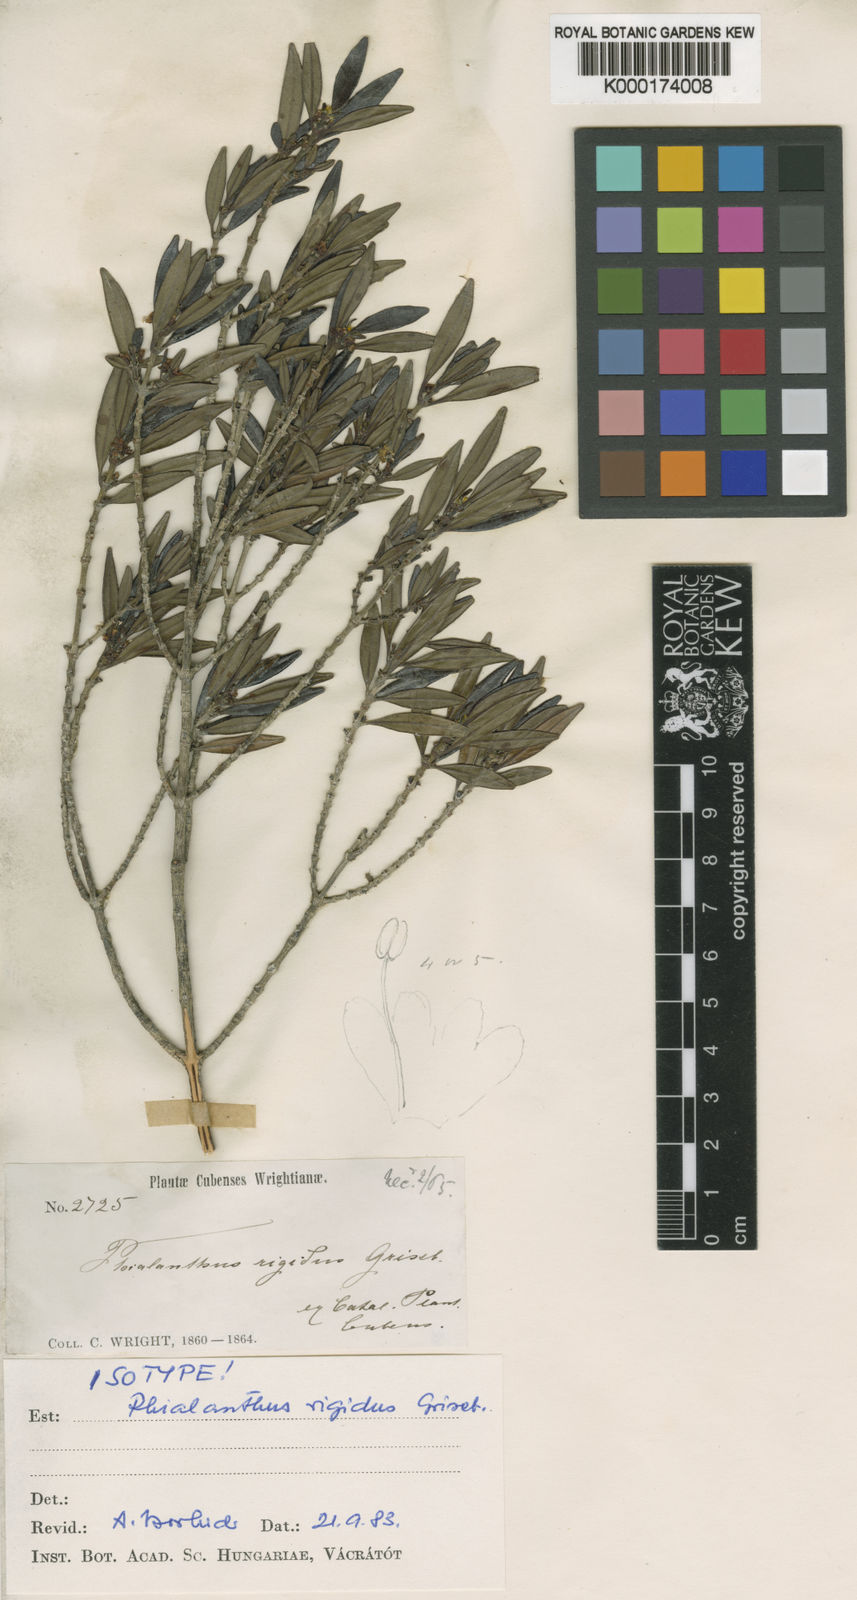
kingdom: Plantae
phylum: Tracheophyta
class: Magnoliopsida
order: Gentianales
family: Rubiaceae
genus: Phialanthus
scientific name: Phialanthus rigidus
